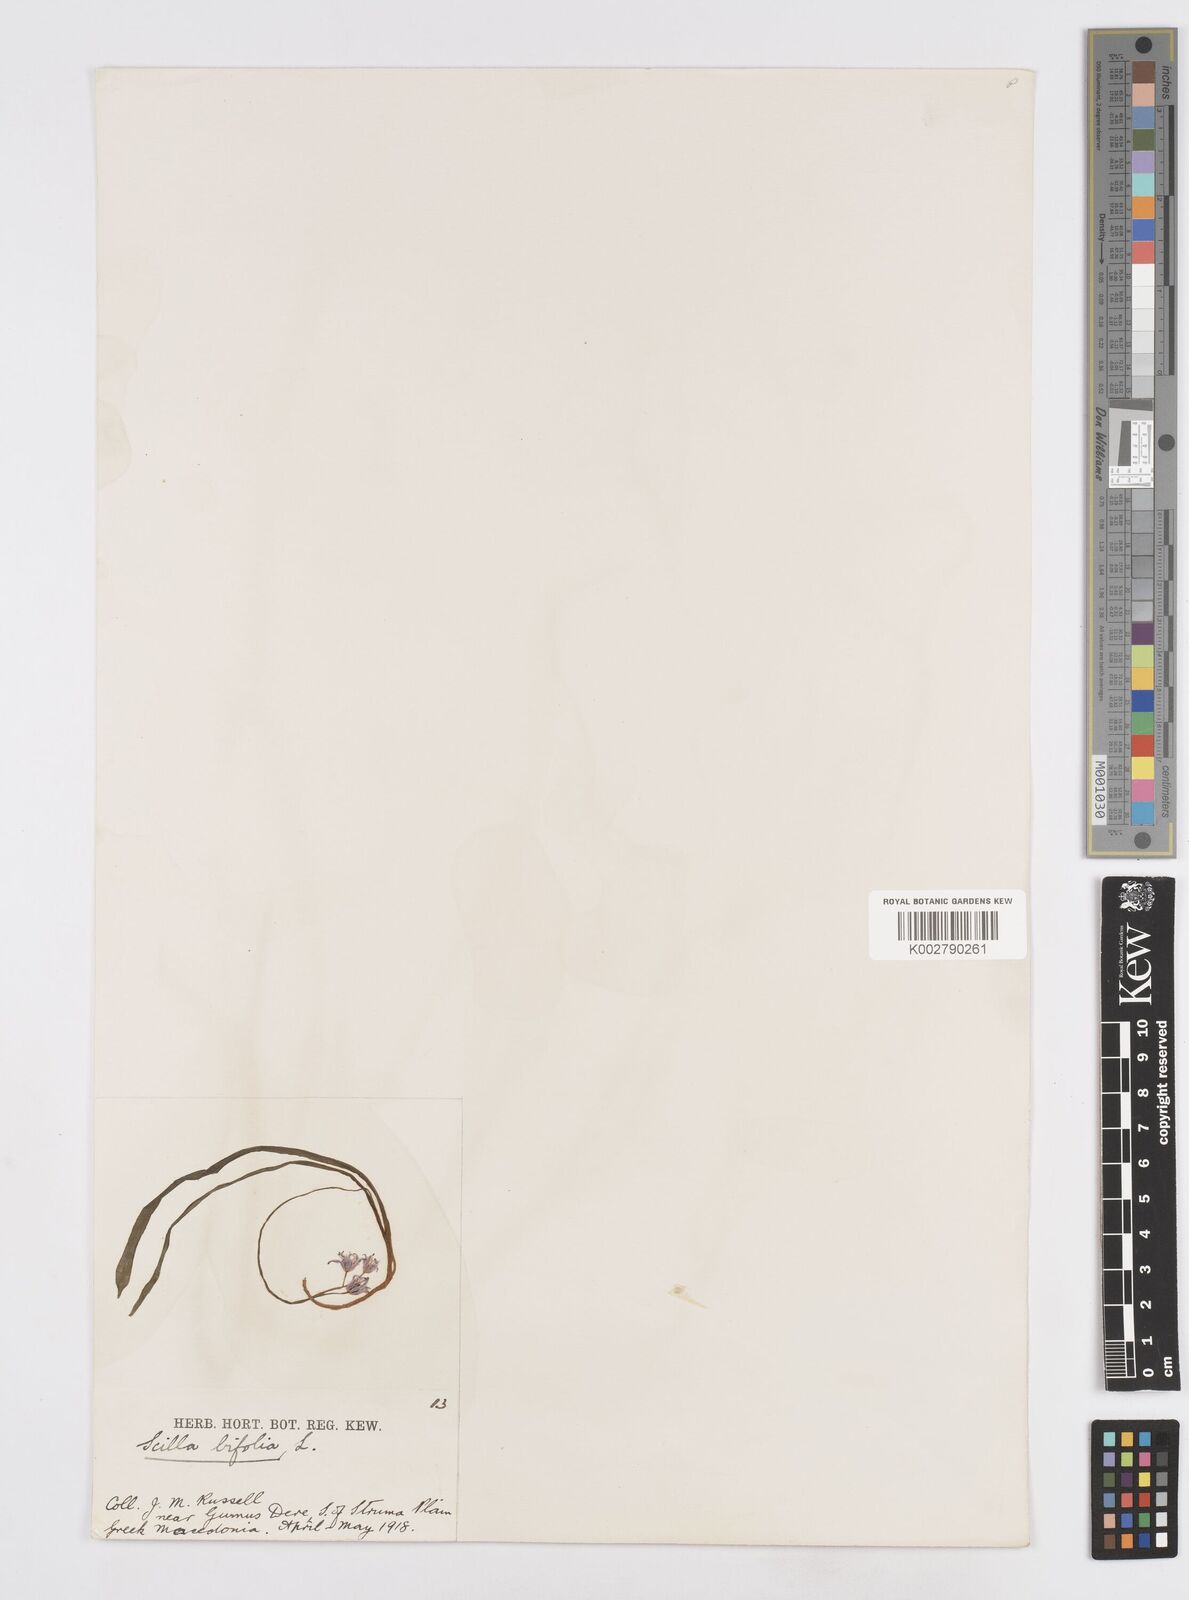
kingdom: Plantae
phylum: Tracheophyta
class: Liliopsida
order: Asparagales
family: Asparagaceae
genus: Scilla
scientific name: Scilla bifolia
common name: Alpine squill
